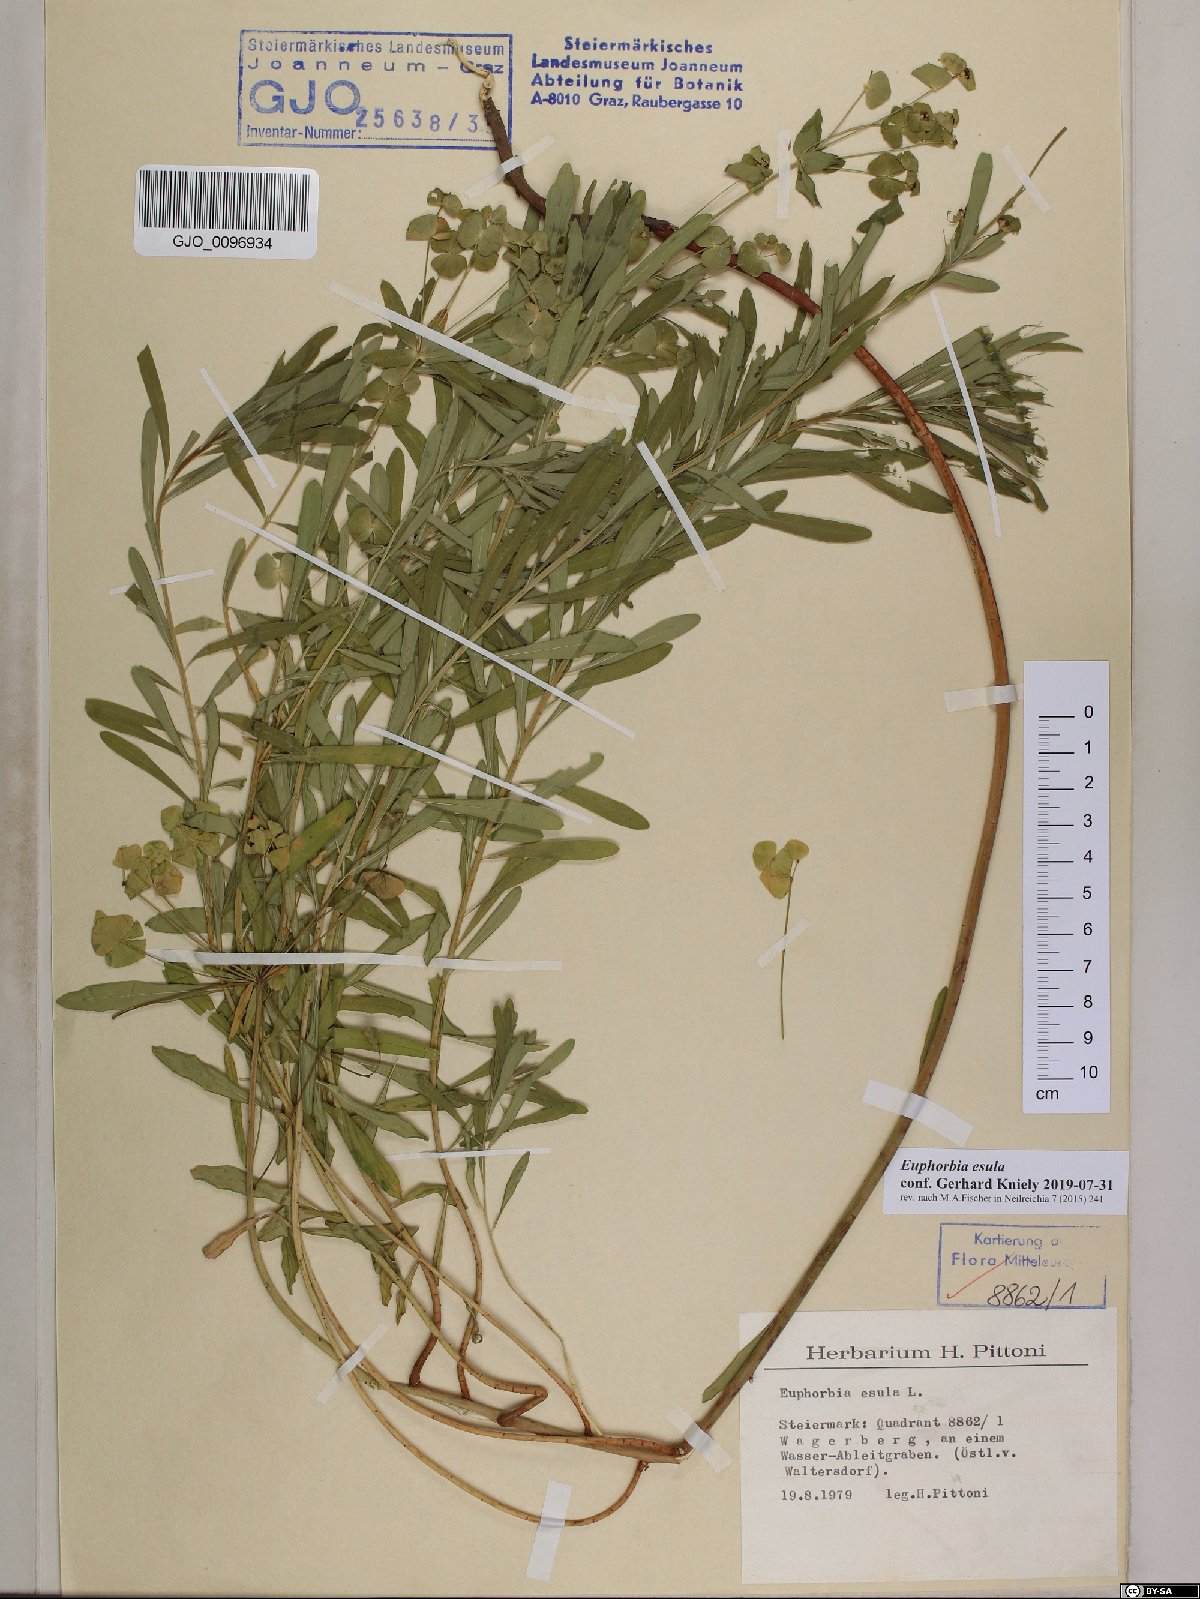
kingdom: Plantae
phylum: Tracheophyta
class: Magnoliopsida
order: Malpighiales
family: Euphorbiaceae
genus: Euphorbia
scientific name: Euphorbia esula
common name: Leafy spurge
